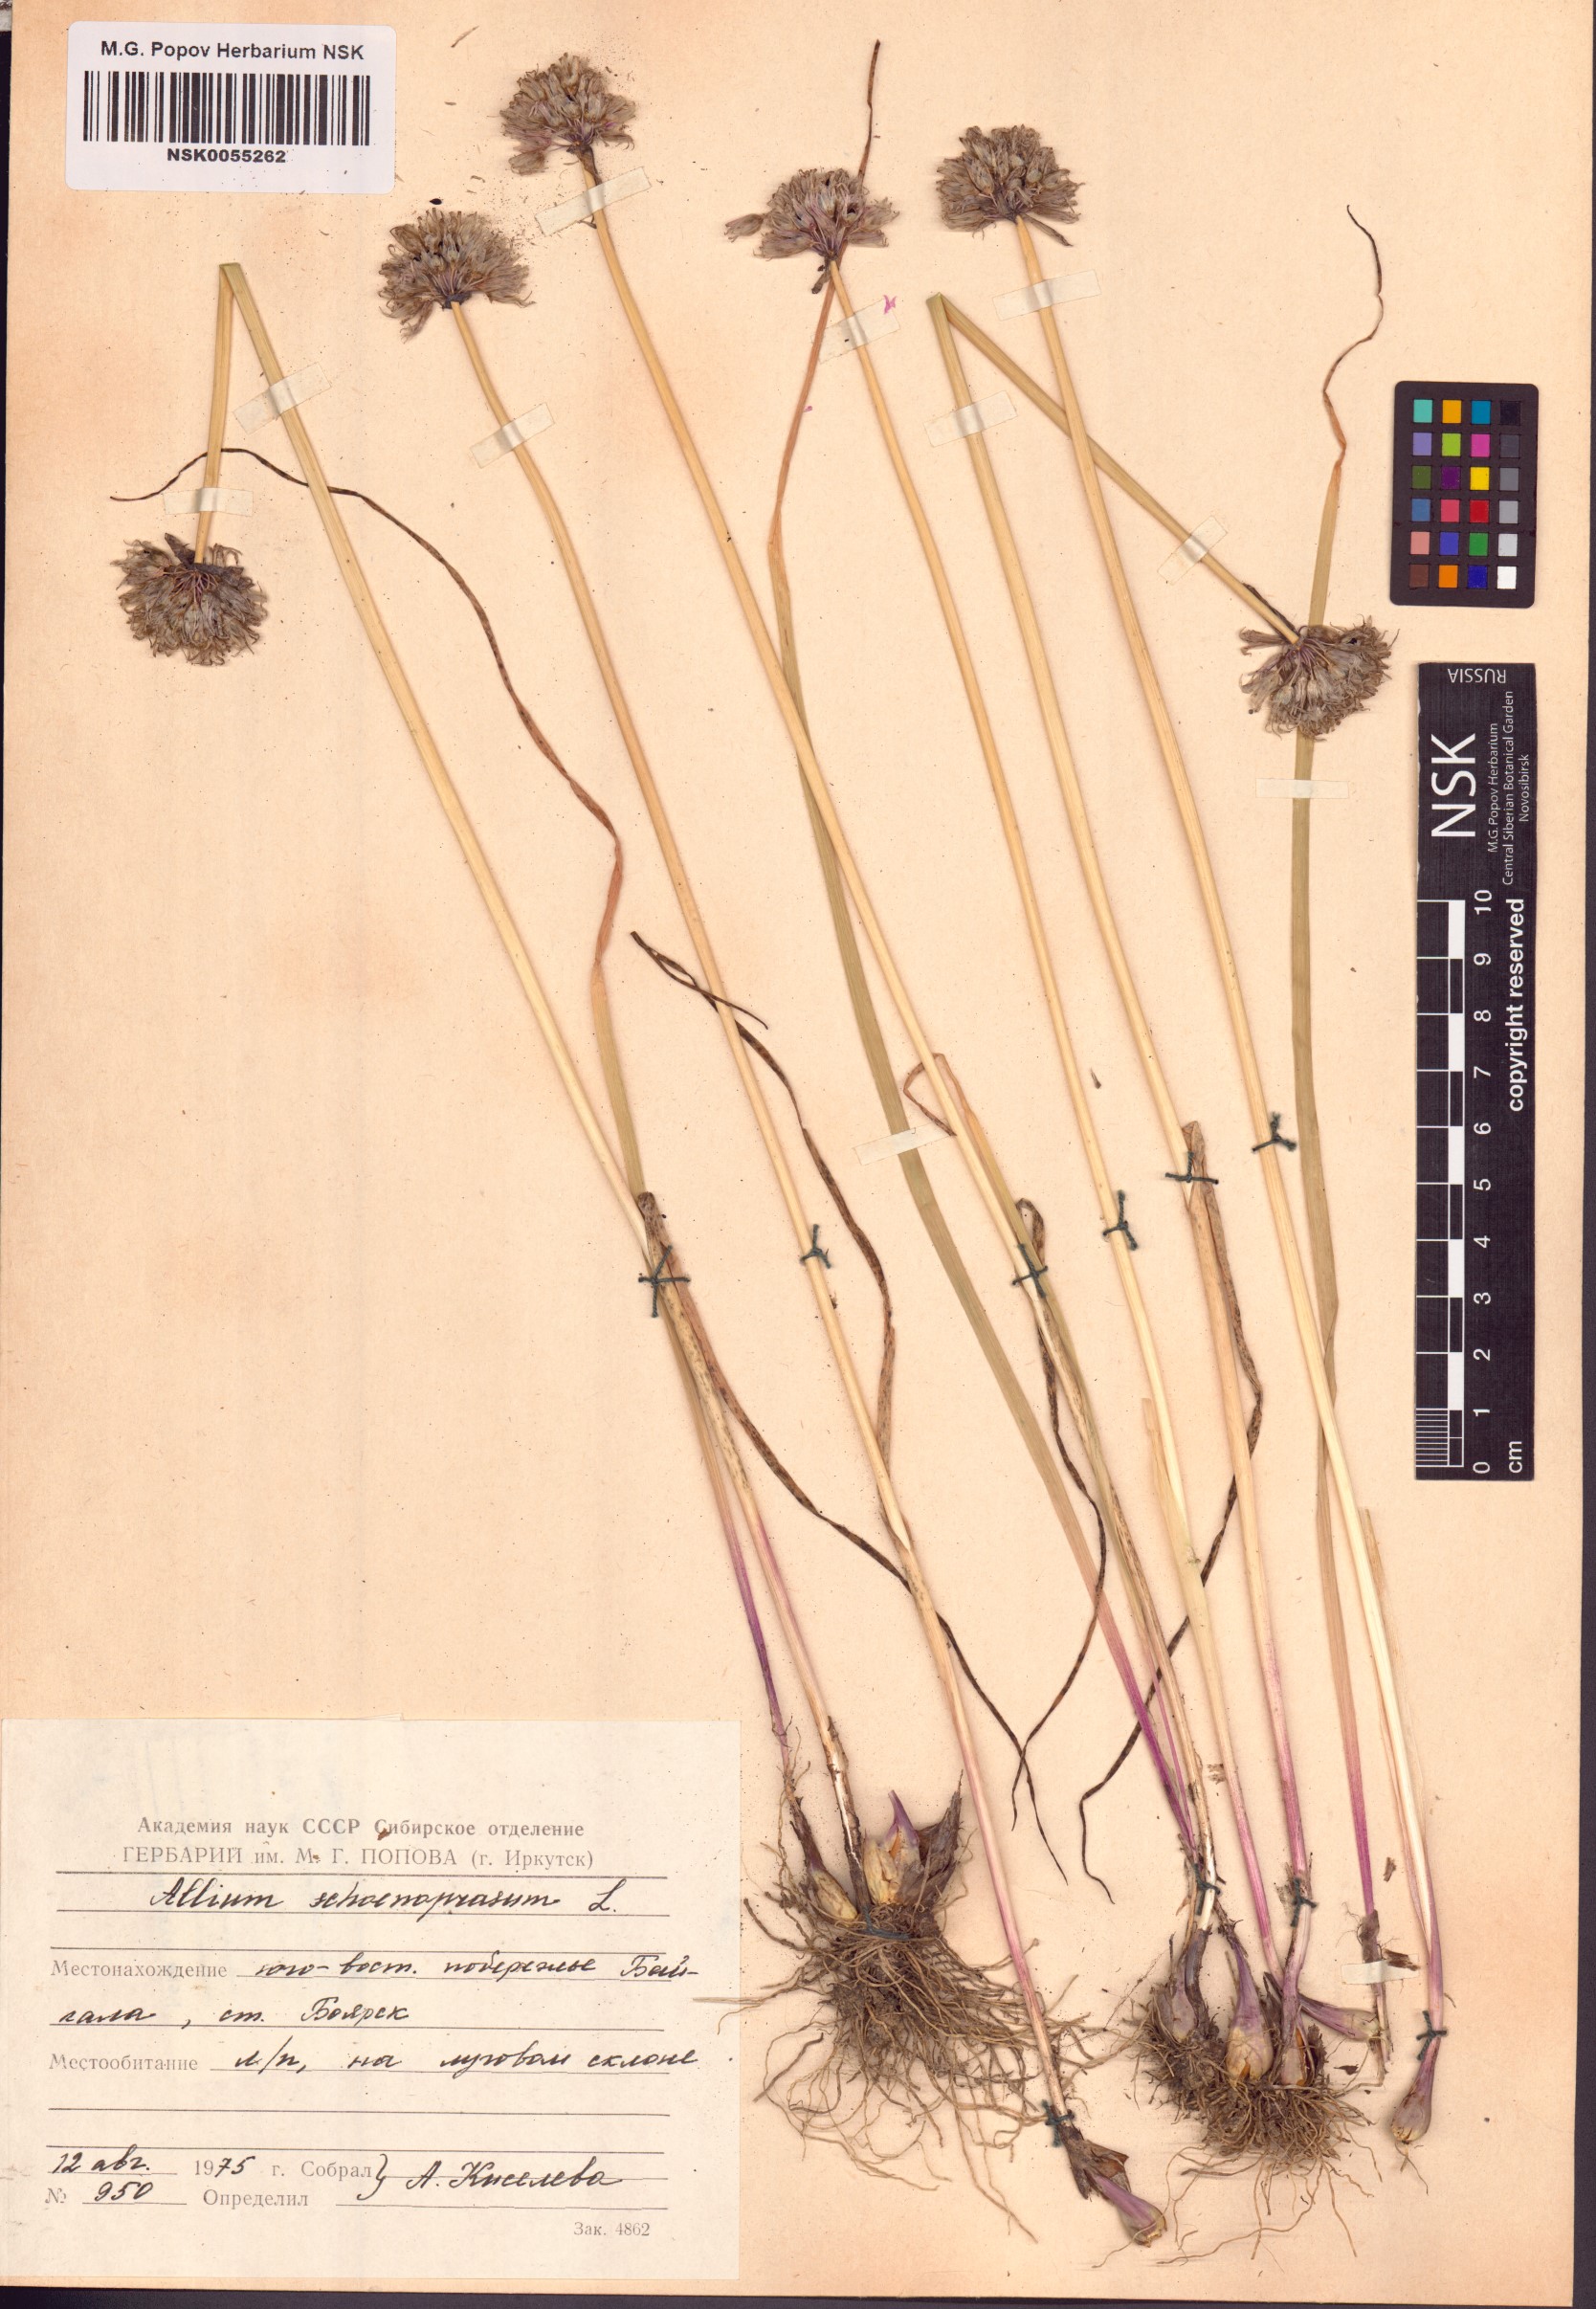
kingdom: Plantae
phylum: Tracheophyta
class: Liliopsida
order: Asparagales
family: Amaryllidaceae
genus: Allium
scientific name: Allium schoenoprasum
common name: Chives
